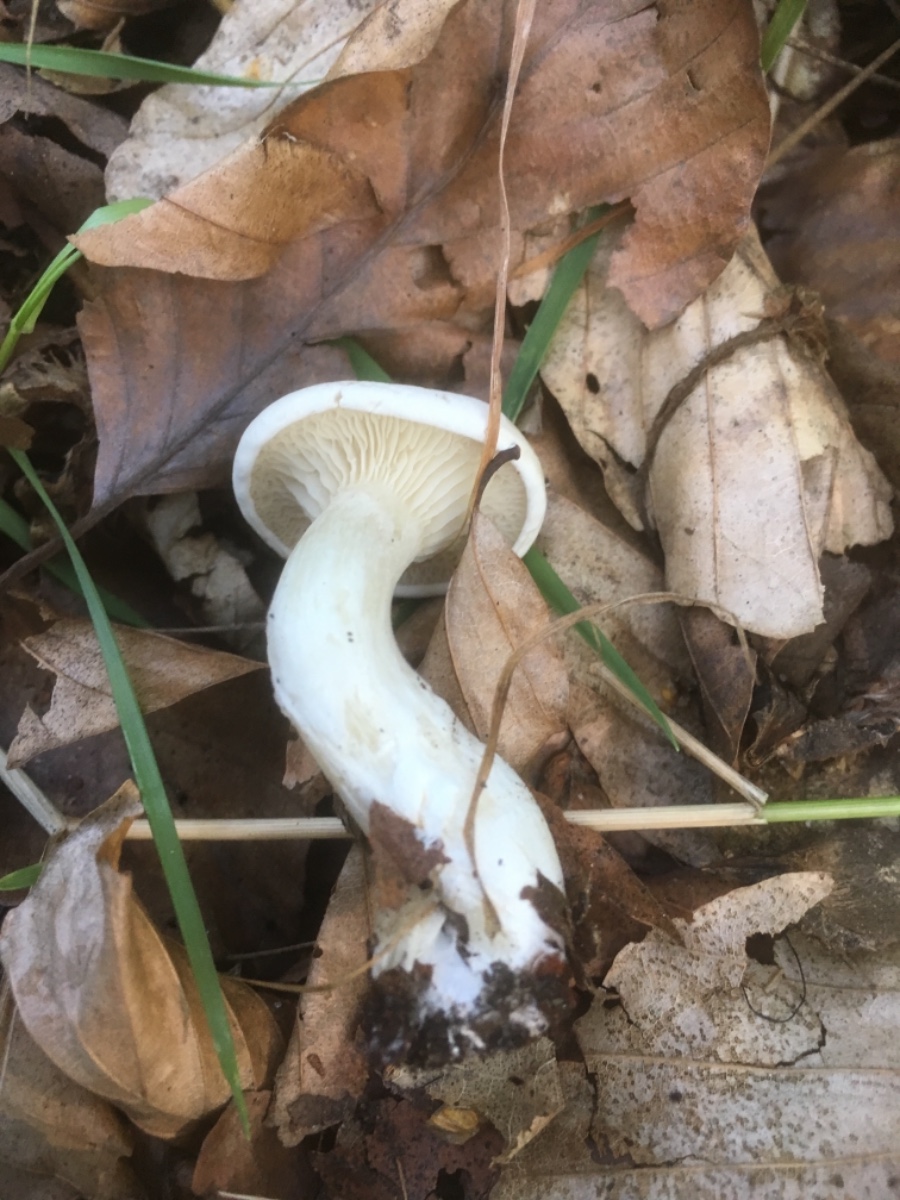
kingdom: Fungi
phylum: Basidiomycota
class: Agaricomycetes
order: Agaricales
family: Entolomataceae
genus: Clitopilus
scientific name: Clitopilus prunulus
